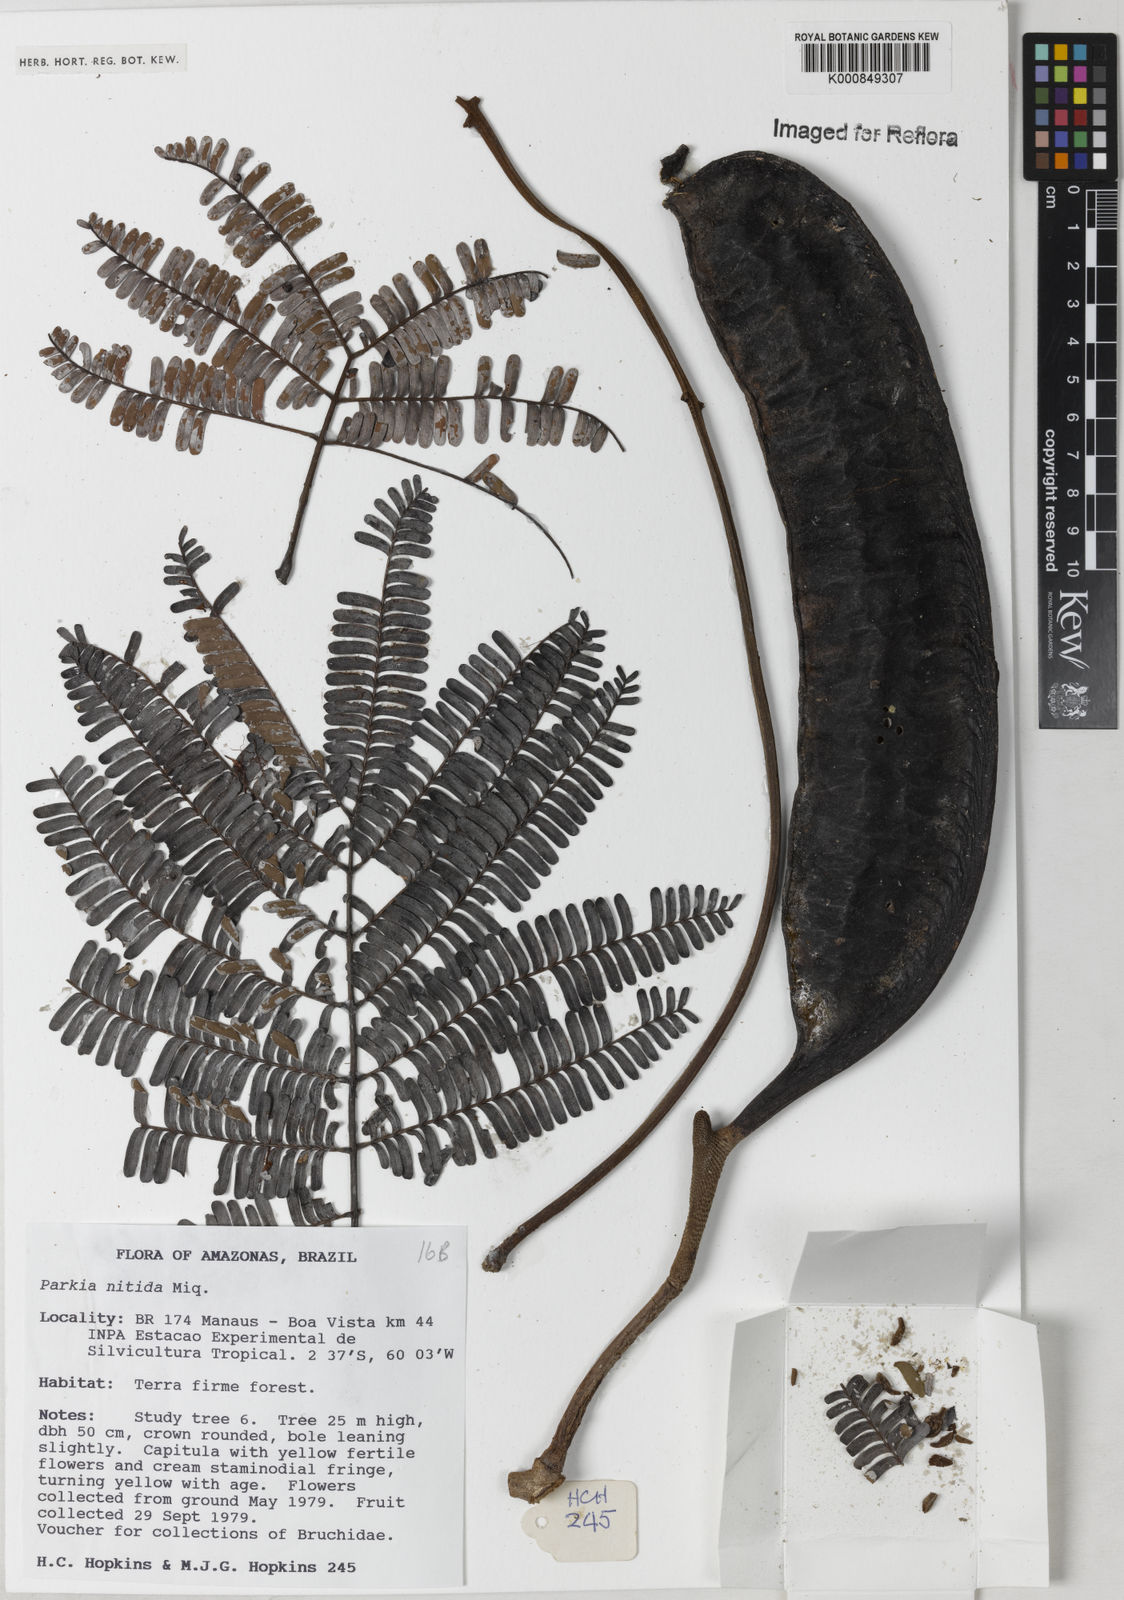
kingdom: Plantae
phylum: Tracheophyta
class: Magnoliopsida
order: Fabales
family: Fabaceae
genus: Parkia
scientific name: Parkia nitida
